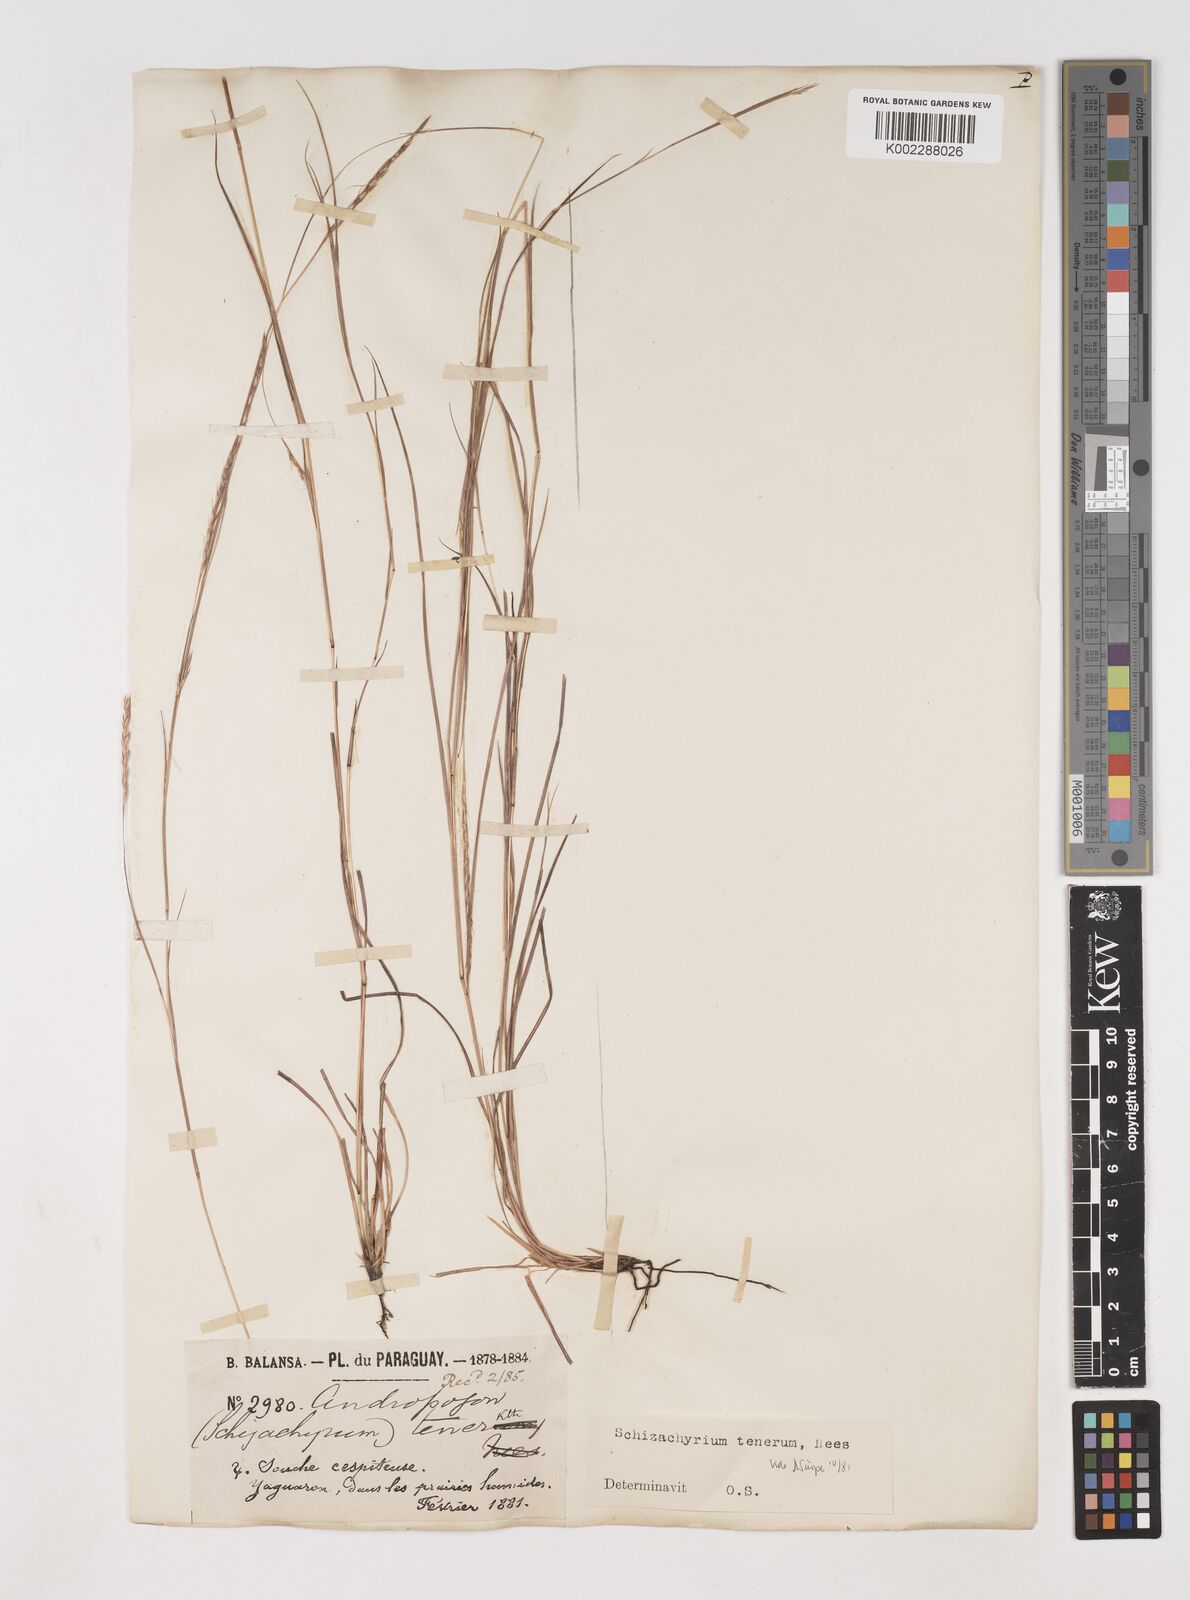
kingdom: Plantae
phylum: Tracheophyta
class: Liliopsida
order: Poales
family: Poaceae
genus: Andropogon
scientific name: Andropogon tener
